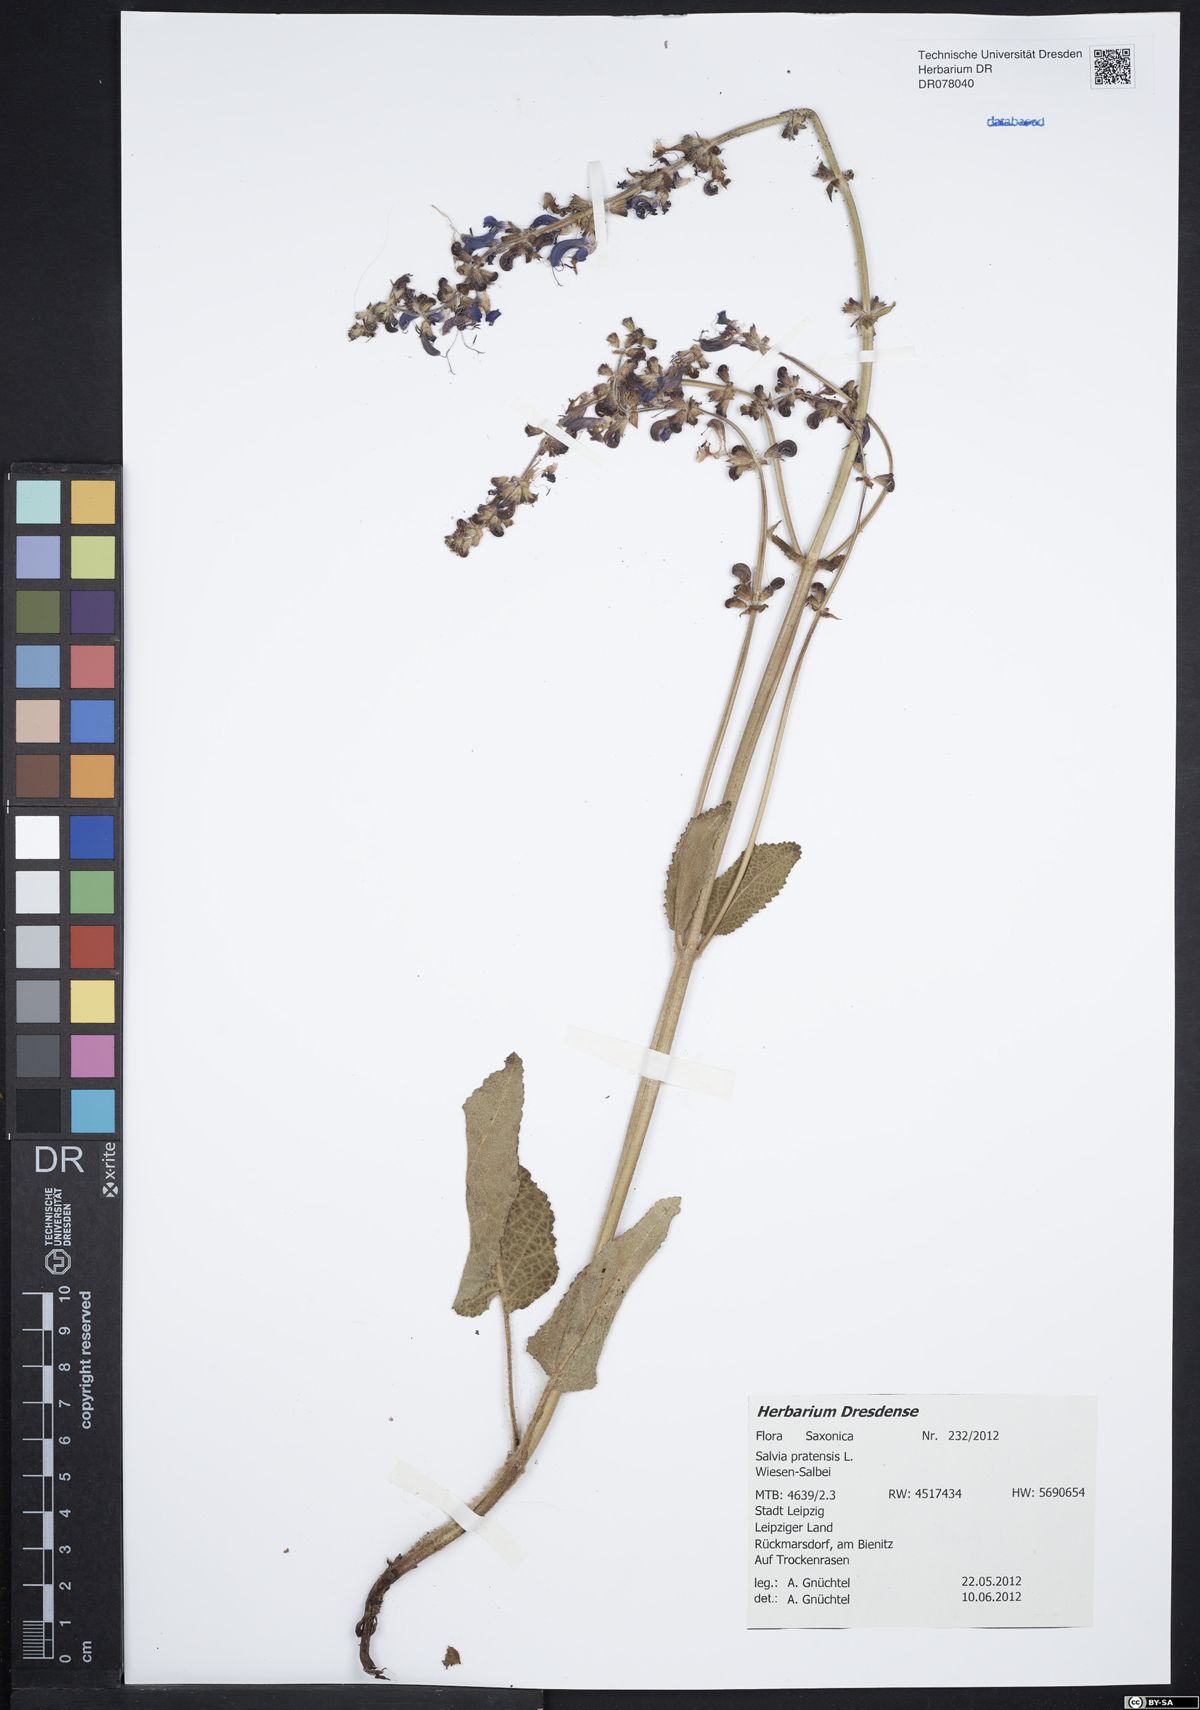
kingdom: Plantae
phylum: Tracheophyta
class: Magnoliopsida
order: Lamiales
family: Lamiaceae
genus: Salvia
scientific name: Salvia pratensis
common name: Meadow sage
